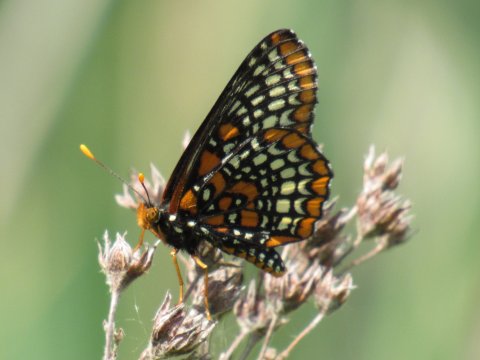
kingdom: Animalia
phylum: Arthropoda
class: Insecta
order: Lepidoptera
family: Nymphalidae
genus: Euphydryas
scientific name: Euphydryas phaeton
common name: Baltimore Checkerspot
